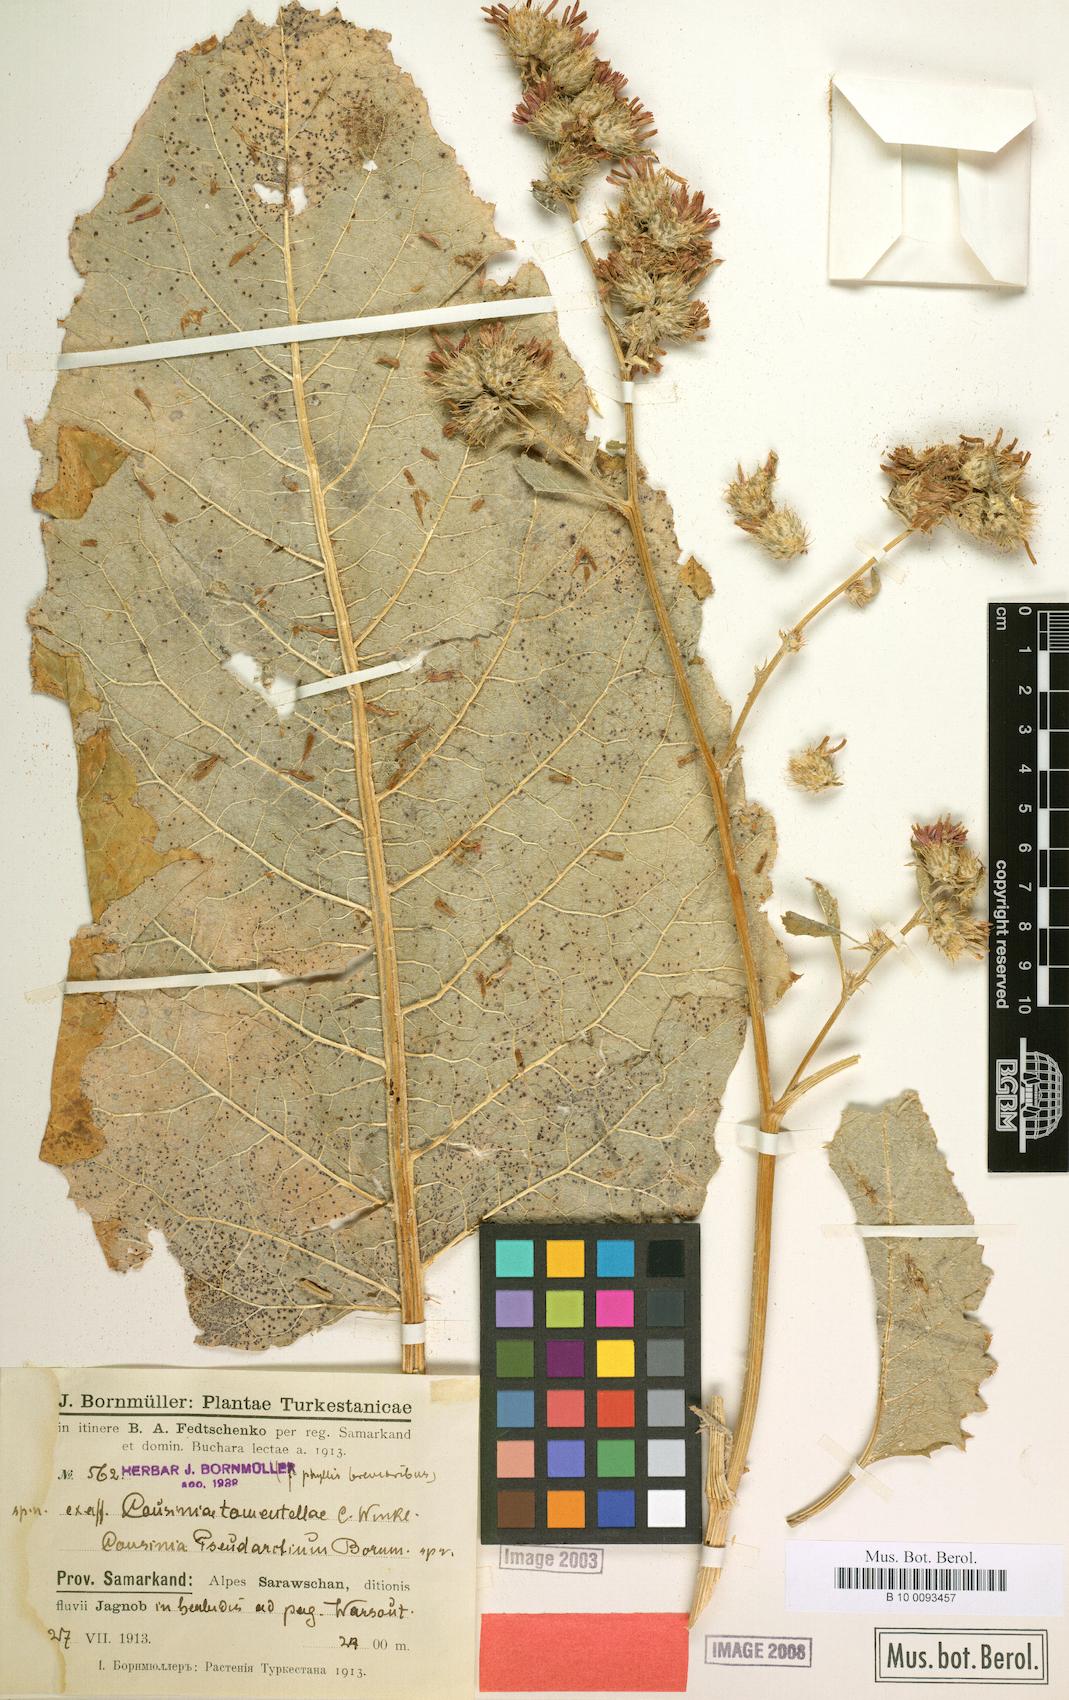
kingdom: Plantae
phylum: Tracheophyta
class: Magnoliopsida
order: Asterales
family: Asteraceae
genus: Arctium
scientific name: Arctium pseudarctium
